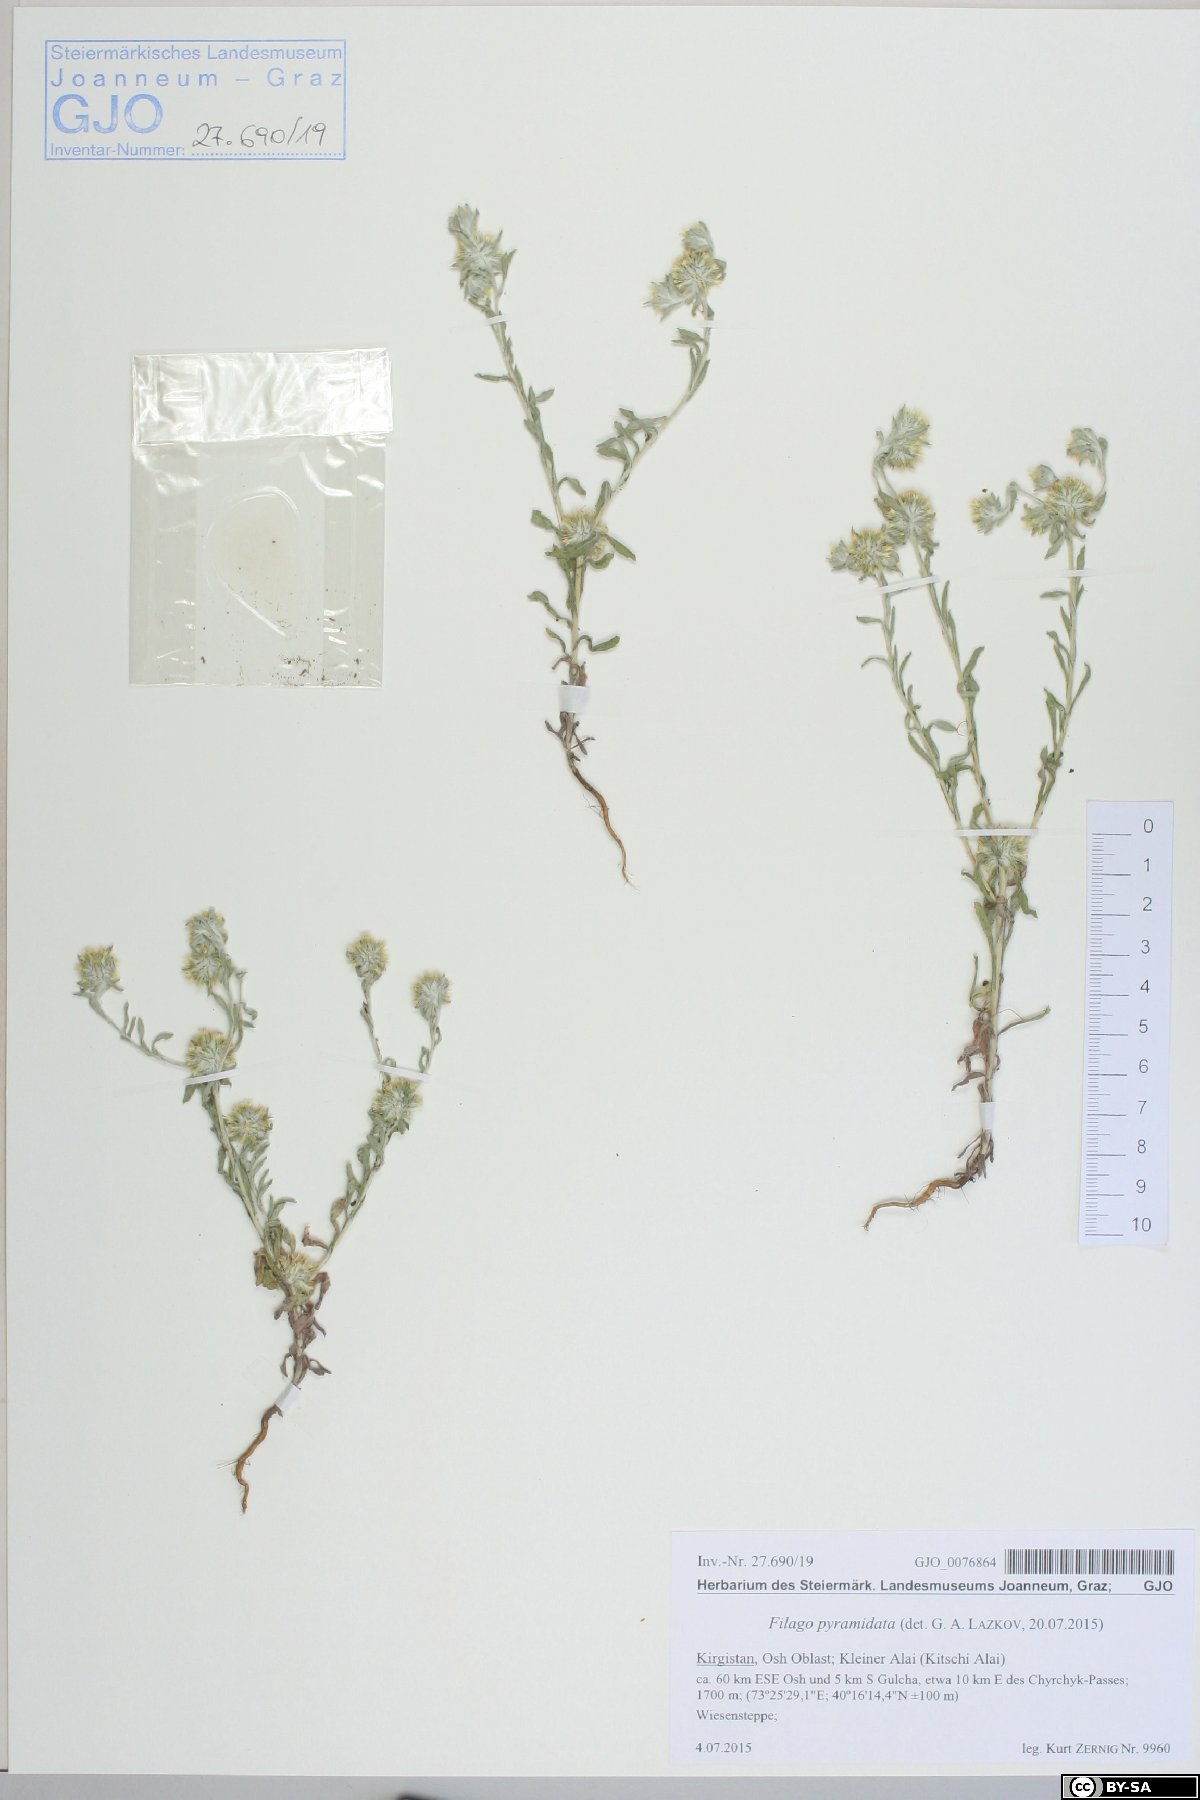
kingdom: Plantae
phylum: Tracheophyta
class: Magnoliopsida
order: Asterales
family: Asteraceae
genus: Filago
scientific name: Filago pyramidata
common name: Broad-leaved cudweed
